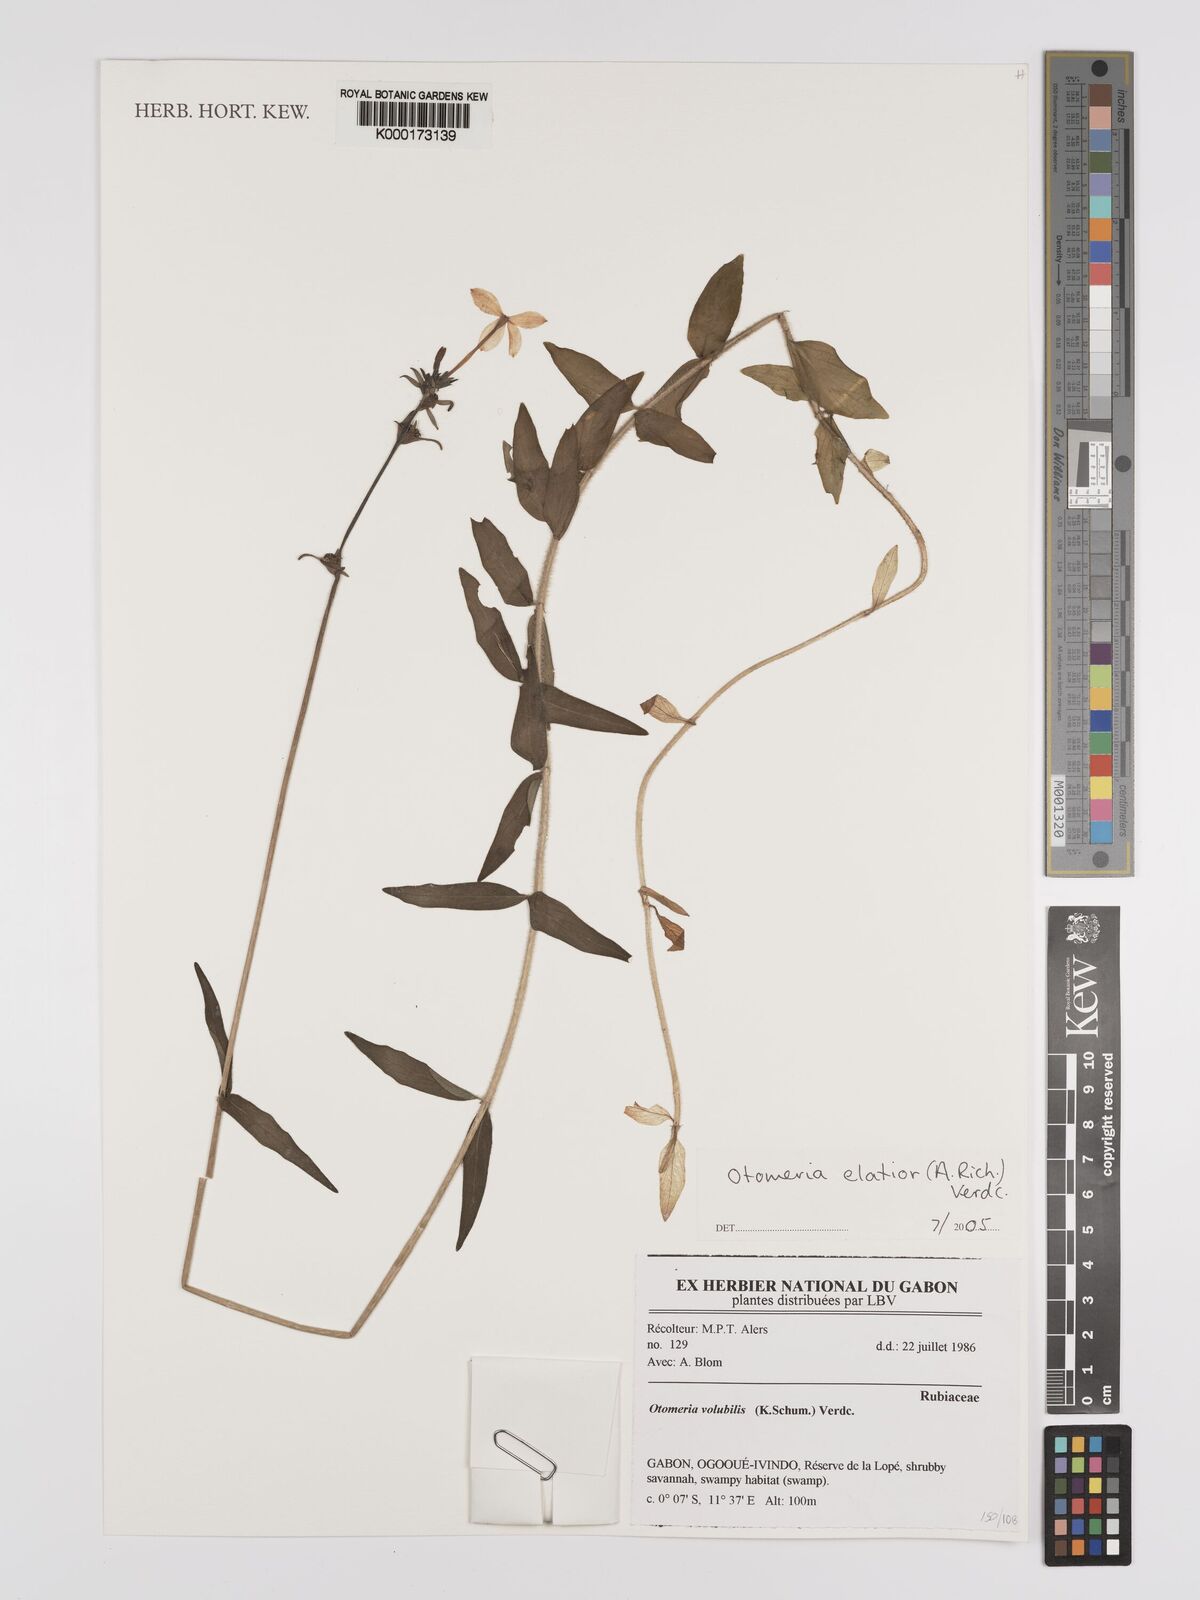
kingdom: Plantae
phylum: Tracheophyta
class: Magnoliopsida
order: Gentianales
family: Rubiaceae
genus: Otomeria
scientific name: Otomeria elatior
